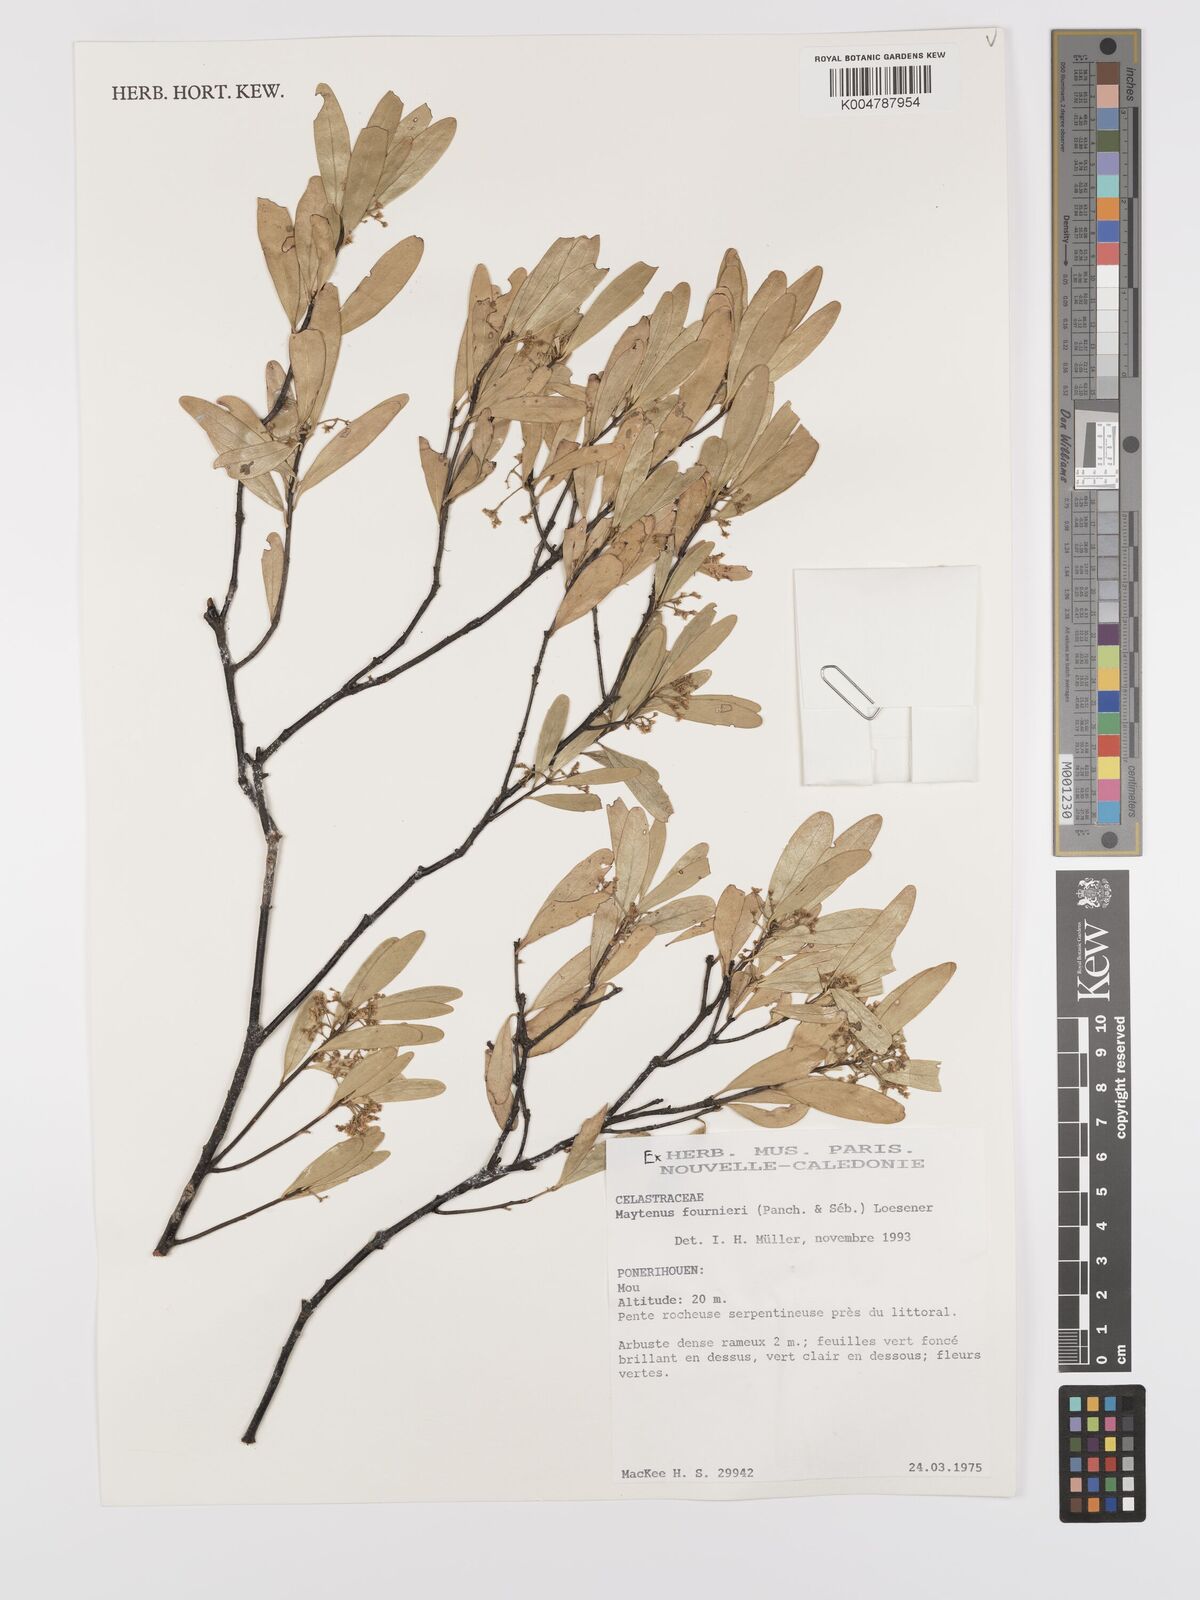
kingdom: Plantae
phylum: Tracheophyta
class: Magnoliopsida
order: Celastrales
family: Celastraceae
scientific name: Celastraceae
